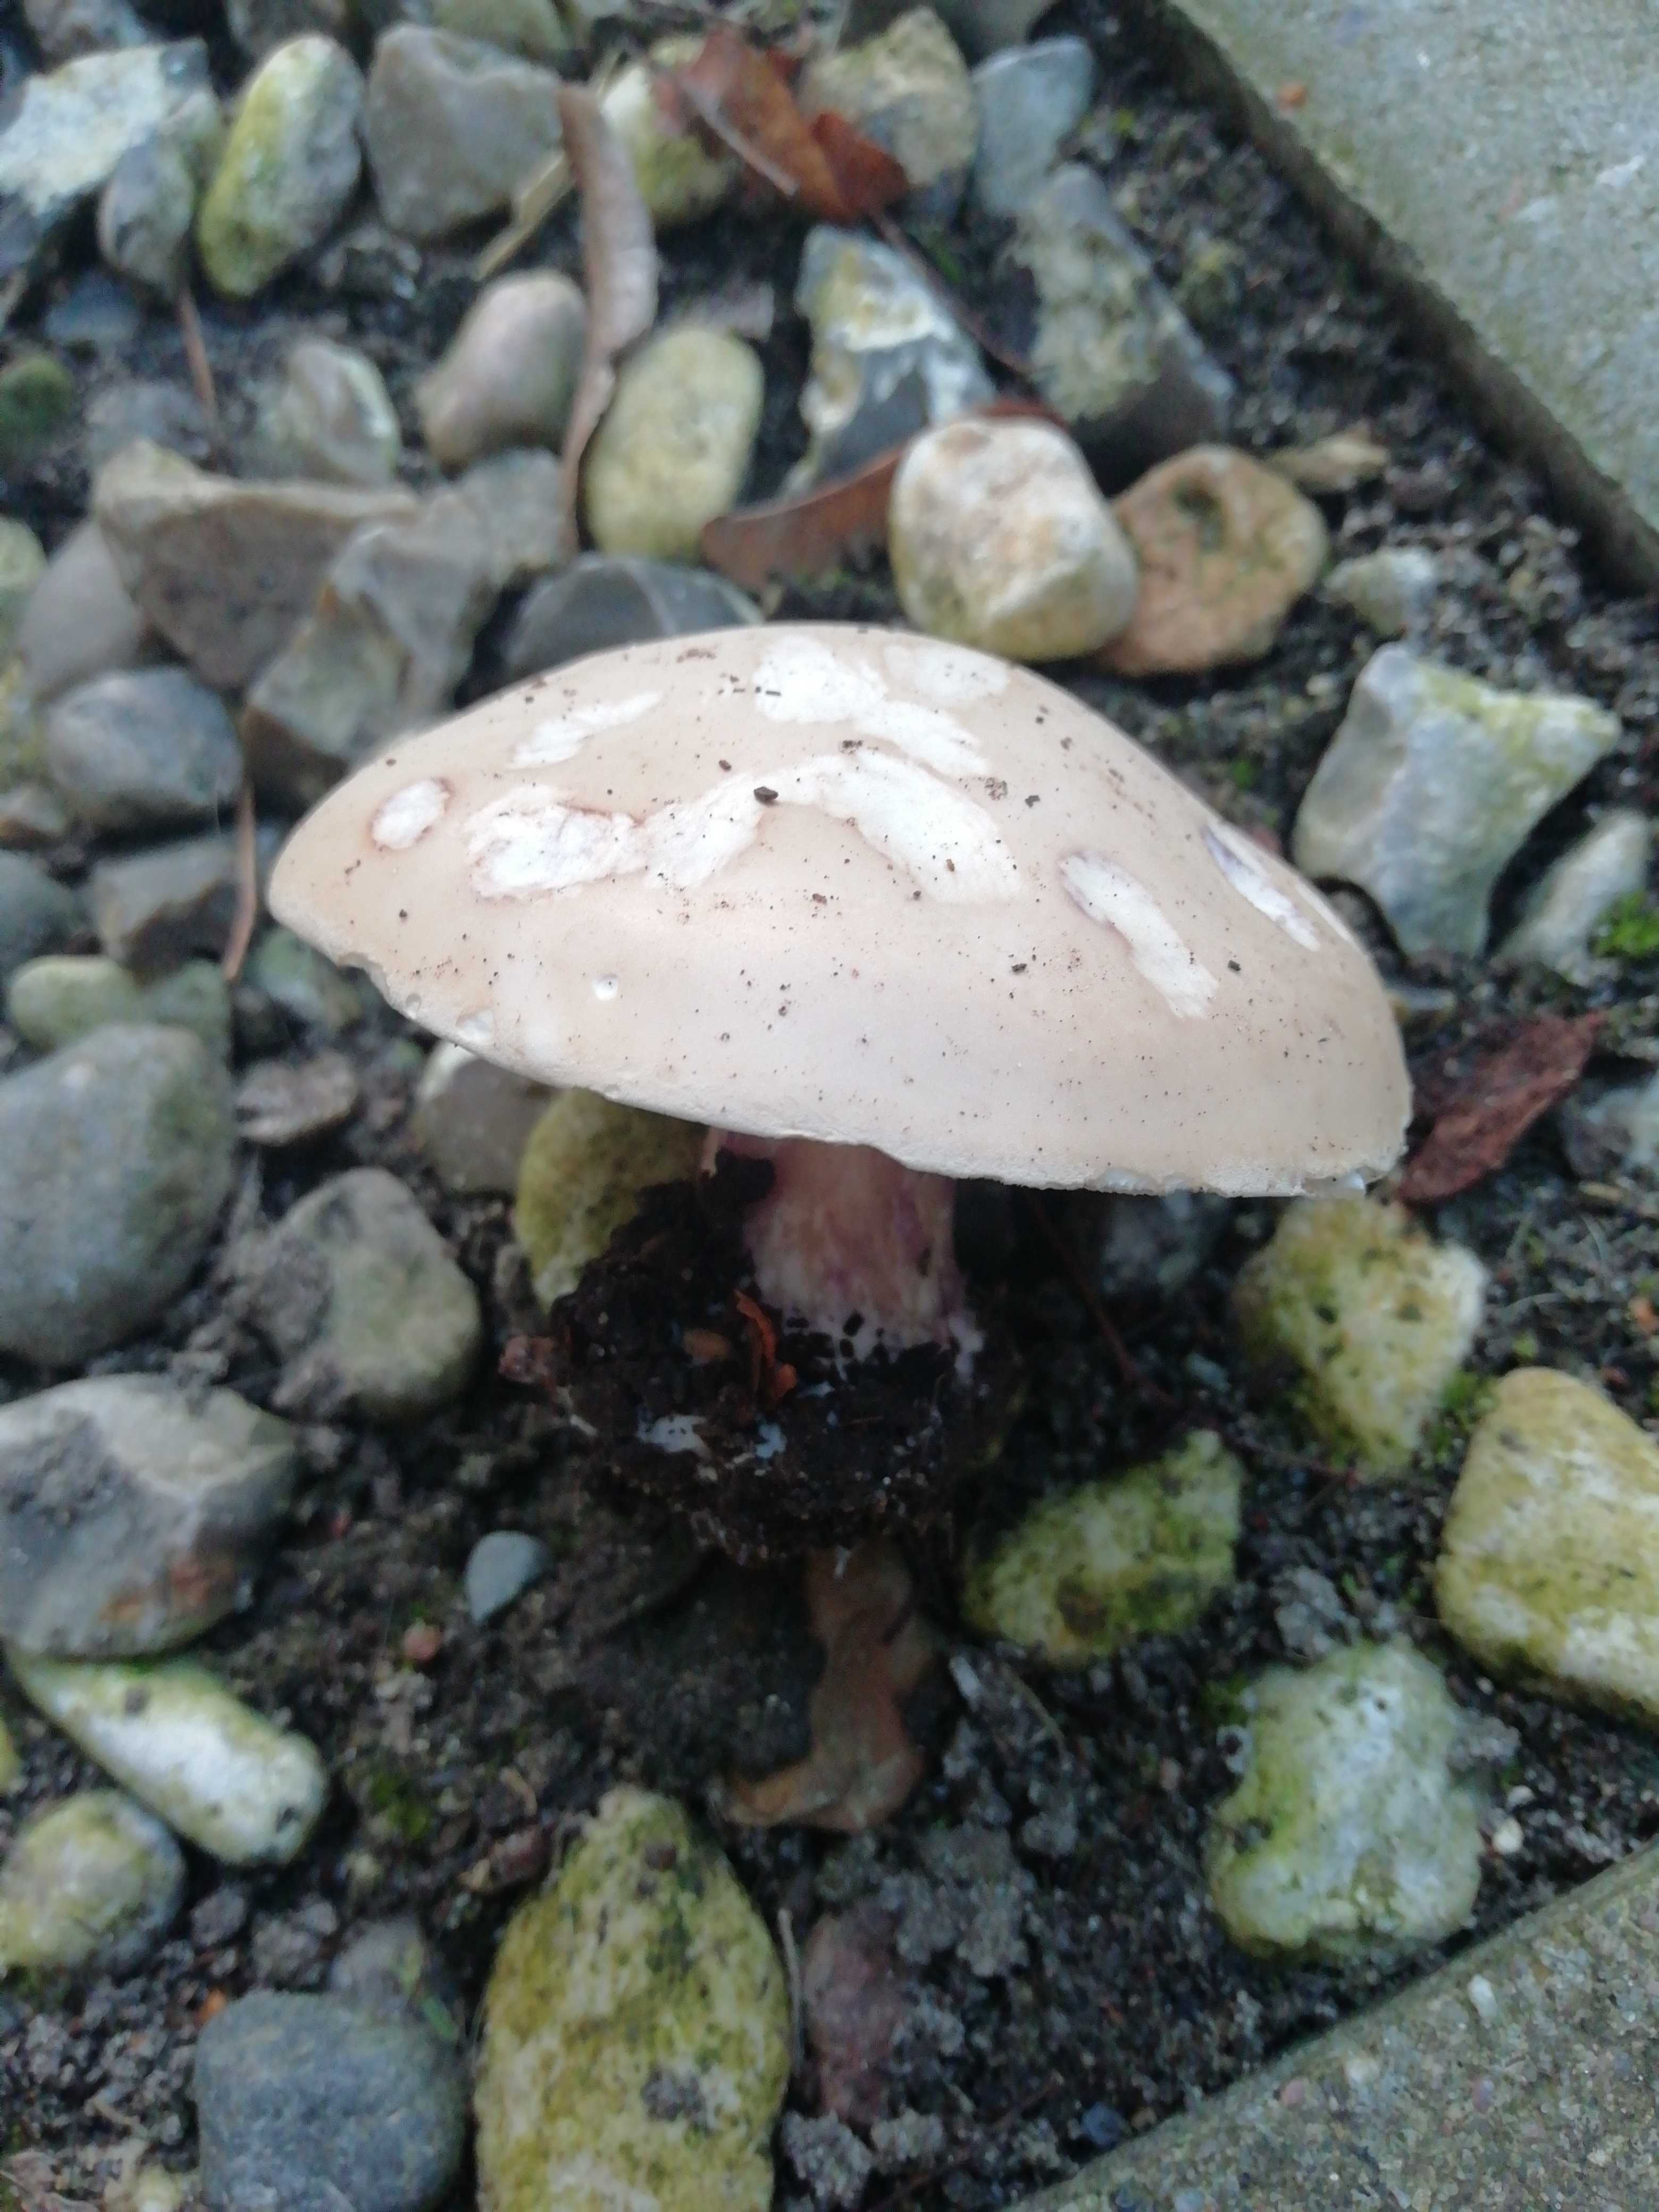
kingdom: Fungi
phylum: Basidiomycota
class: Agaricomycetes
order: Agaricales
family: Tricholomataceae
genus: Lepista
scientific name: Lepista personata
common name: bleg hekseringshat
